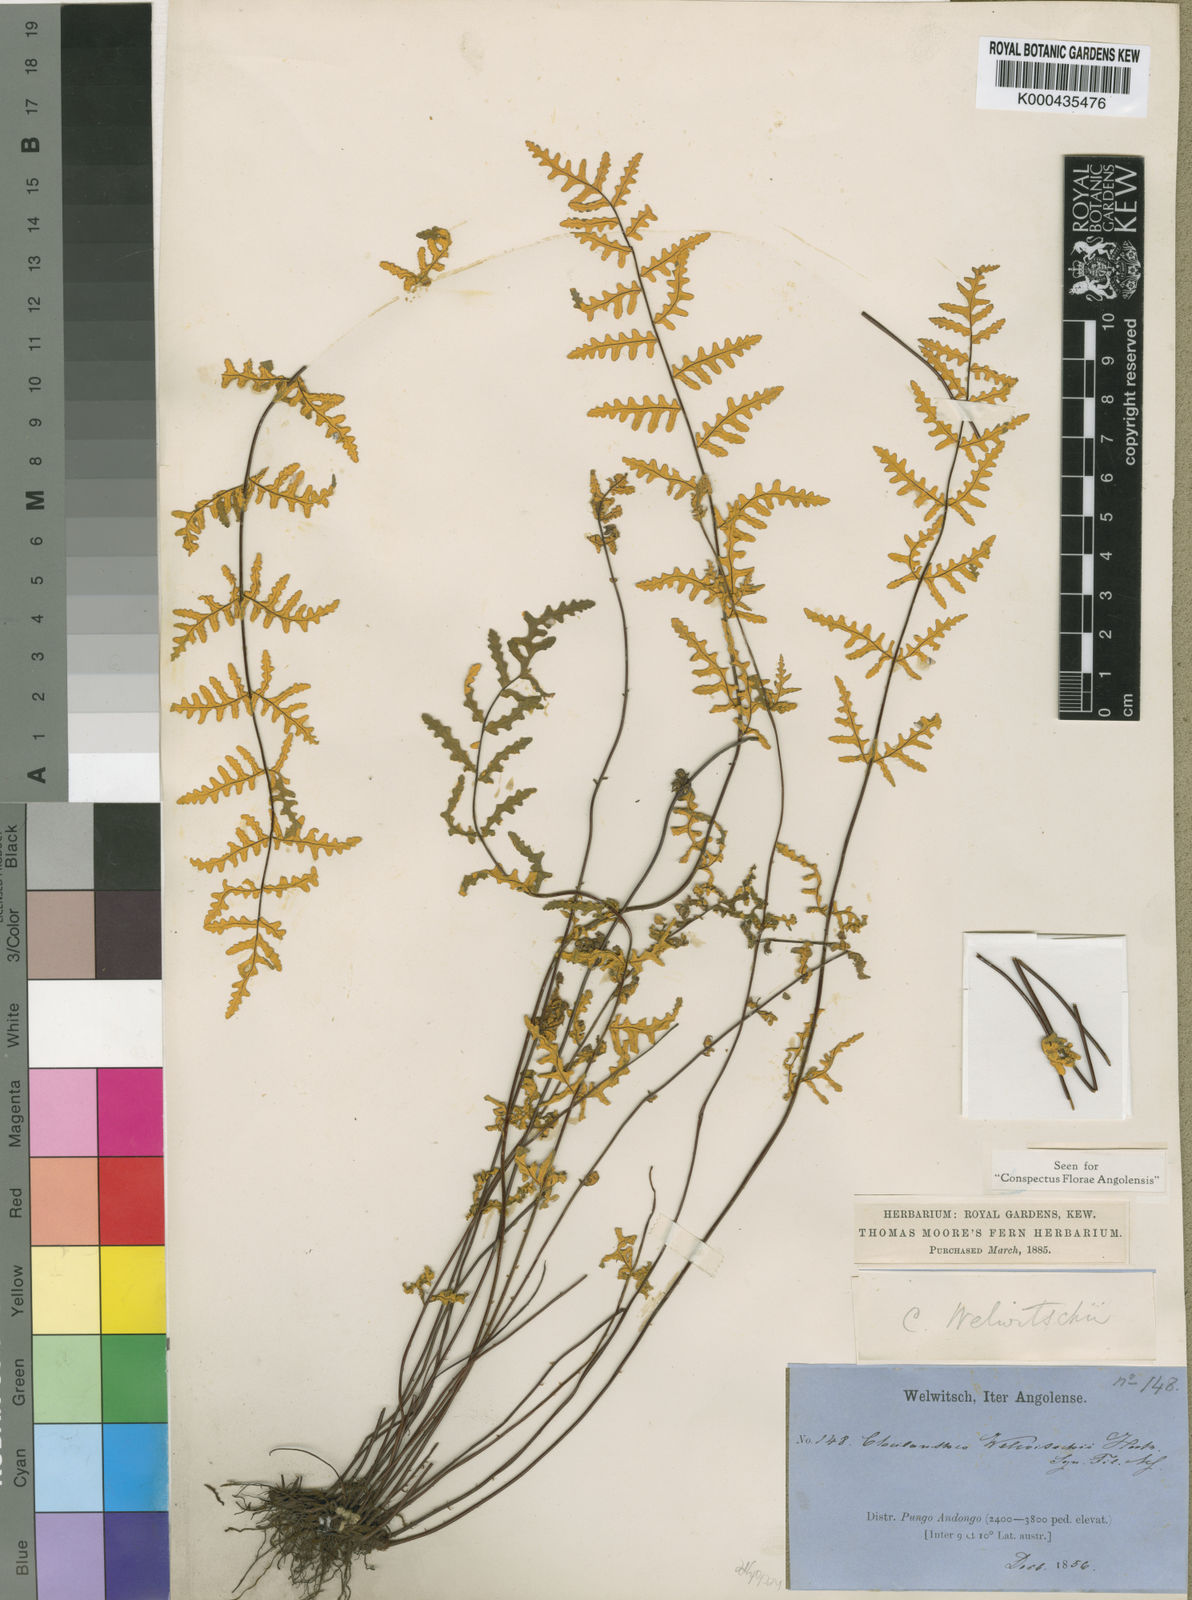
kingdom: Plantae
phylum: Tracheophyta
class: Polypodiopsida
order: Polypodiales
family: Pteridaceae
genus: Aleuritopteris
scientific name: Aleuritopteris welwitschii
